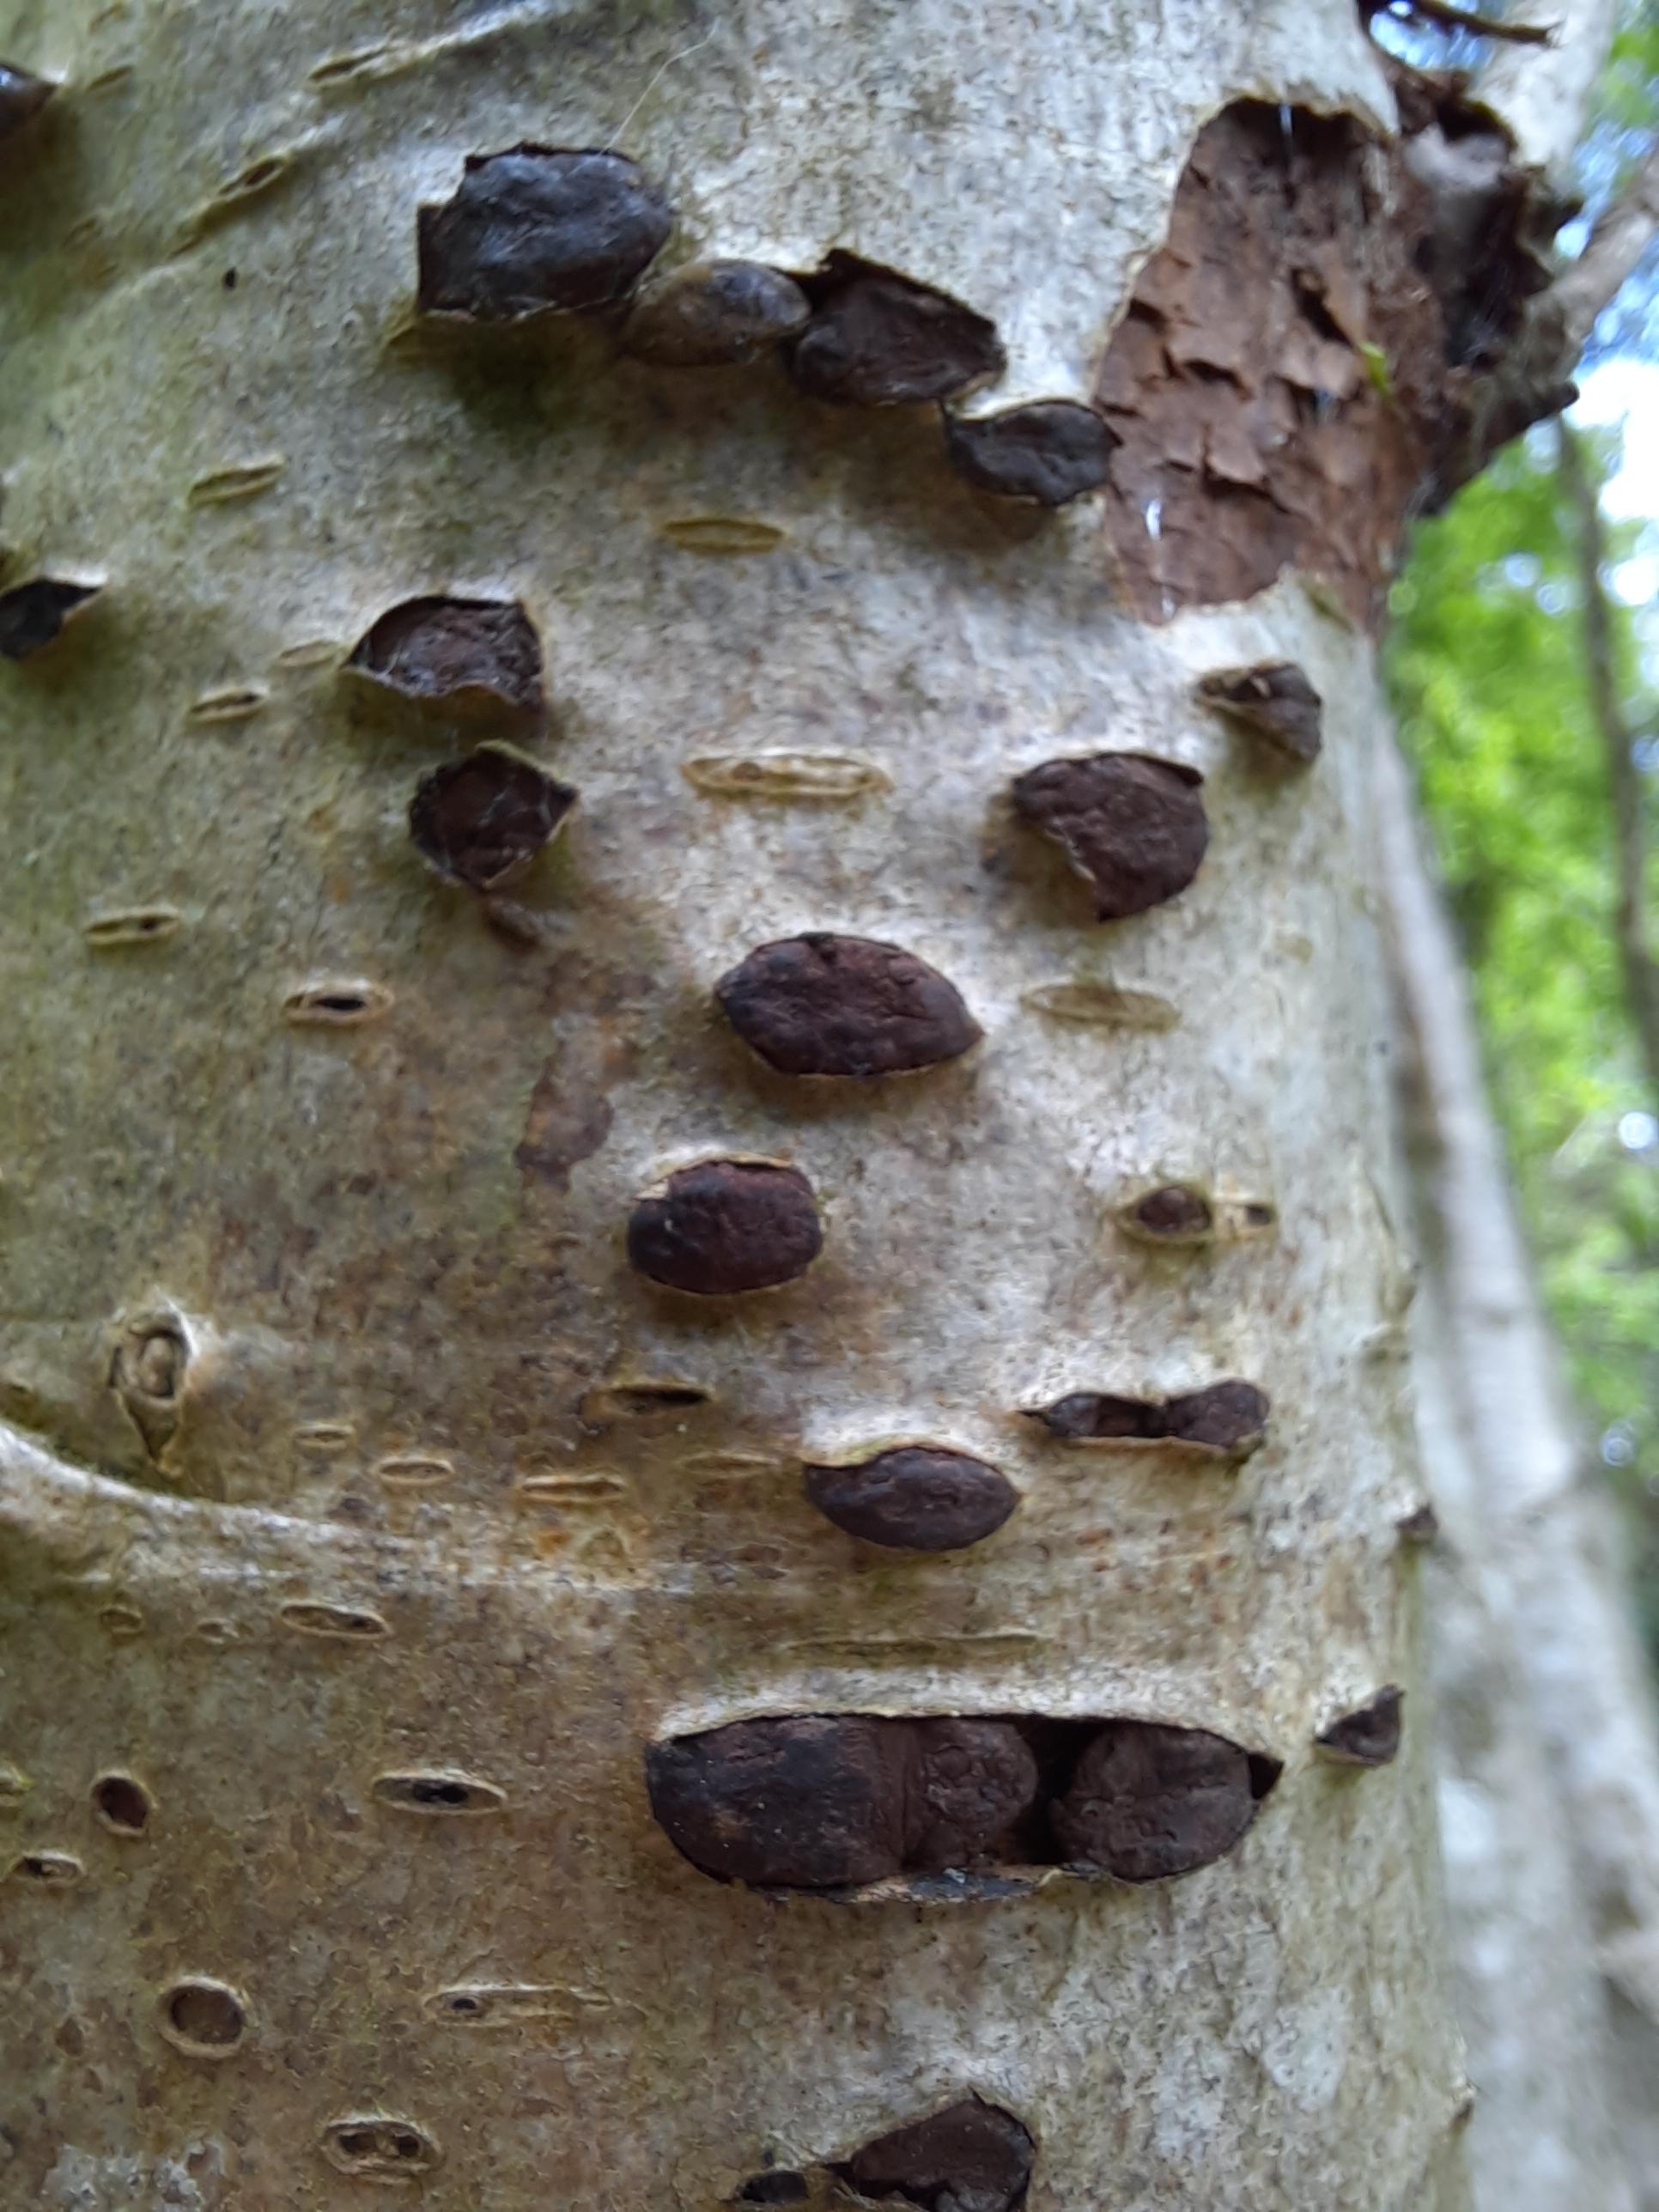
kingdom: Fungi
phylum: Ascomycota
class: Sordariomycetes
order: Xylariales
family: Hypoxylaceae
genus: Jackrogersella
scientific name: Jackrogersella
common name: kulbær
